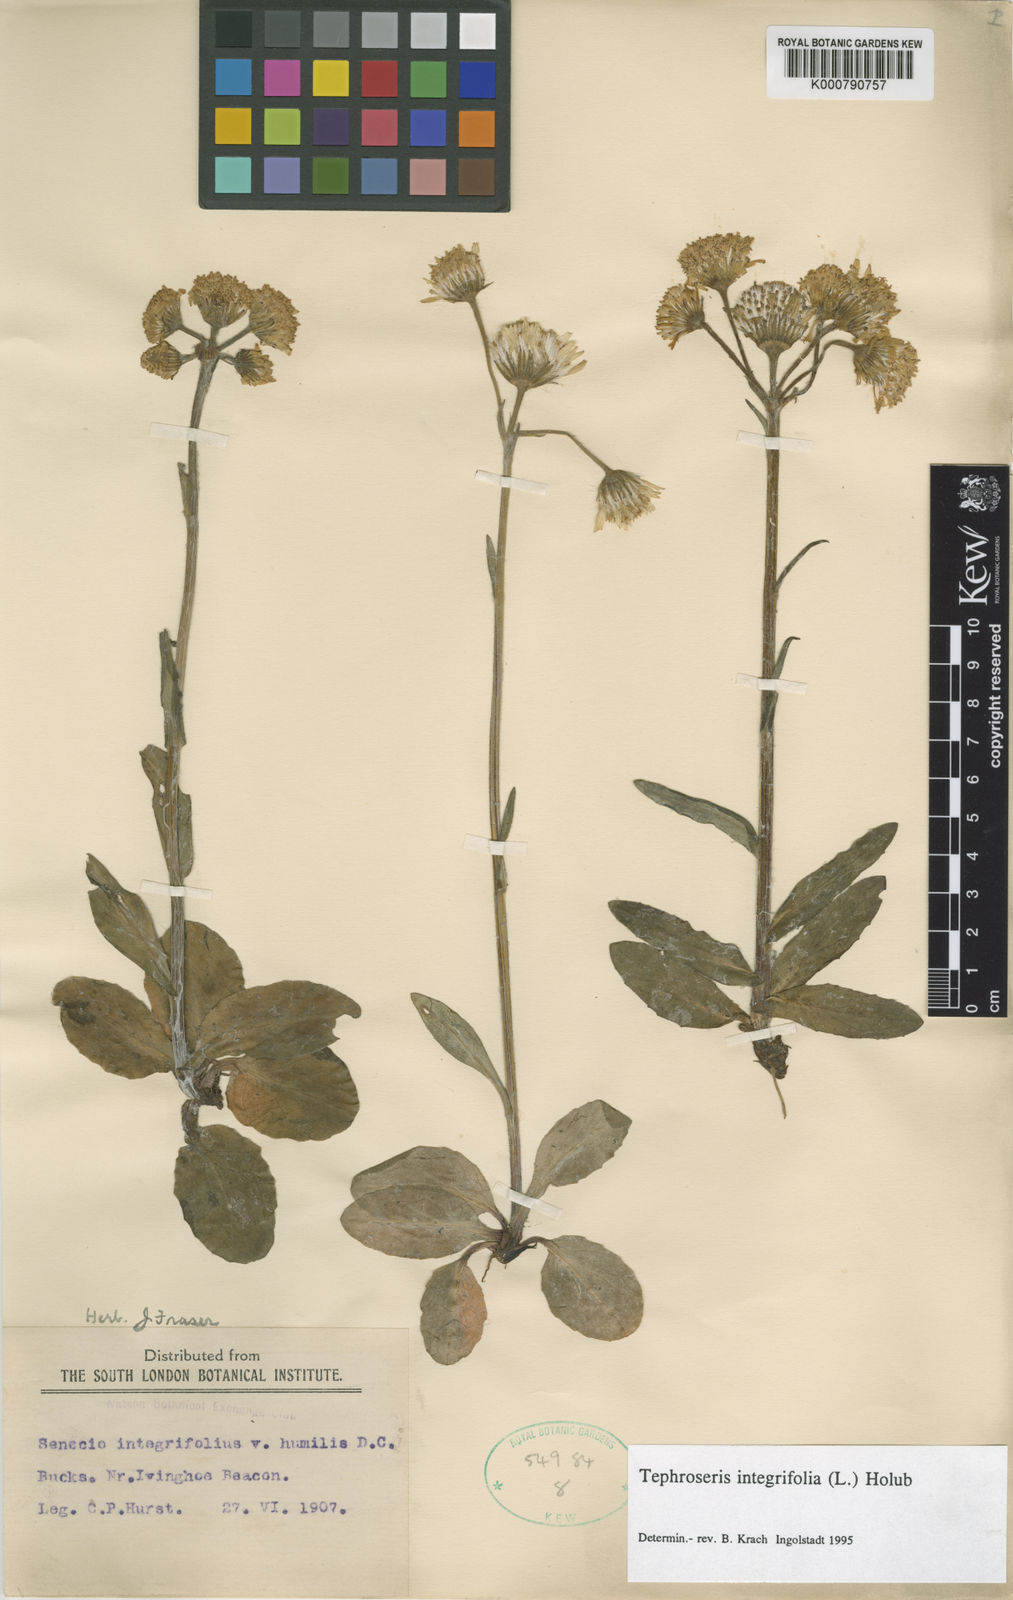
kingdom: Plantae
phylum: Tracheophyta
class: Magnoliopsida
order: Asterales
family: Asteraceae
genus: Tephroseris
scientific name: Tephroseris integrifolia
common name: Field fleawort
